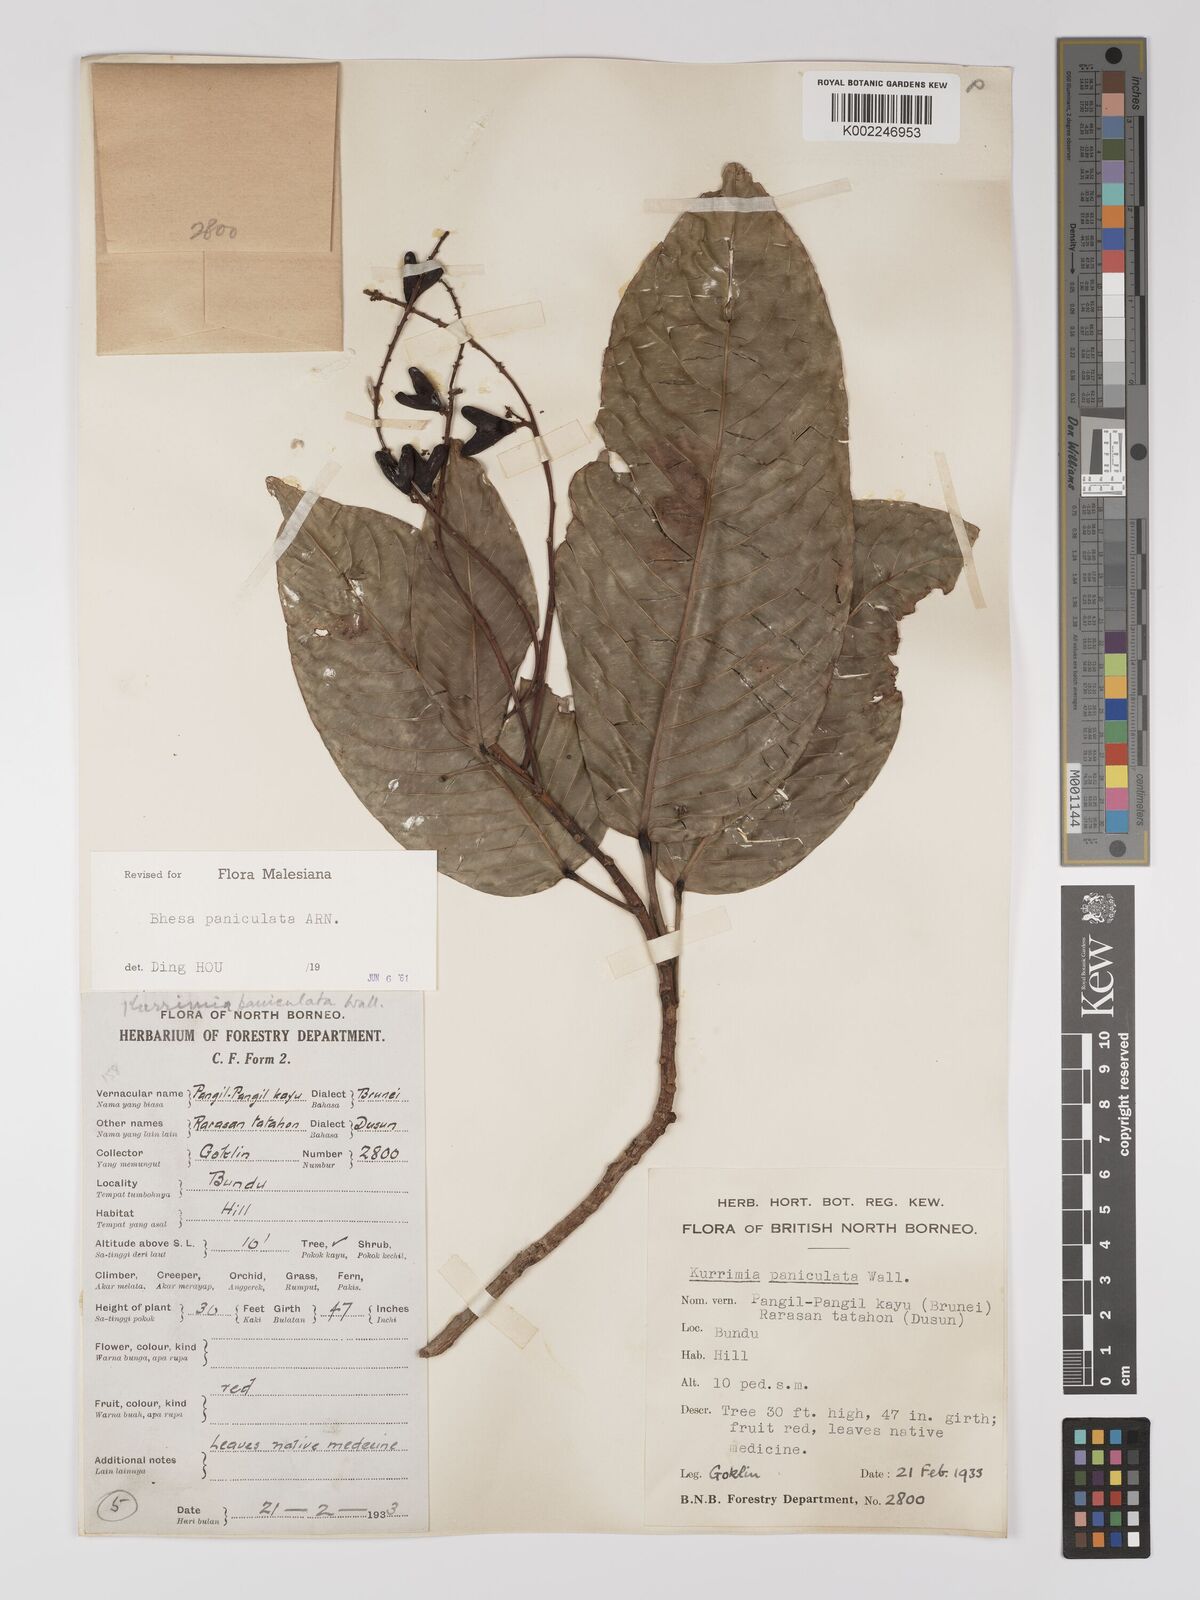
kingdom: Plantae
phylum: Tracheophyta
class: Magnoliopsida
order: Malpighiales
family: Centroplacaceae
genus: Bhesa
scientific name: Bhesa paniculata
